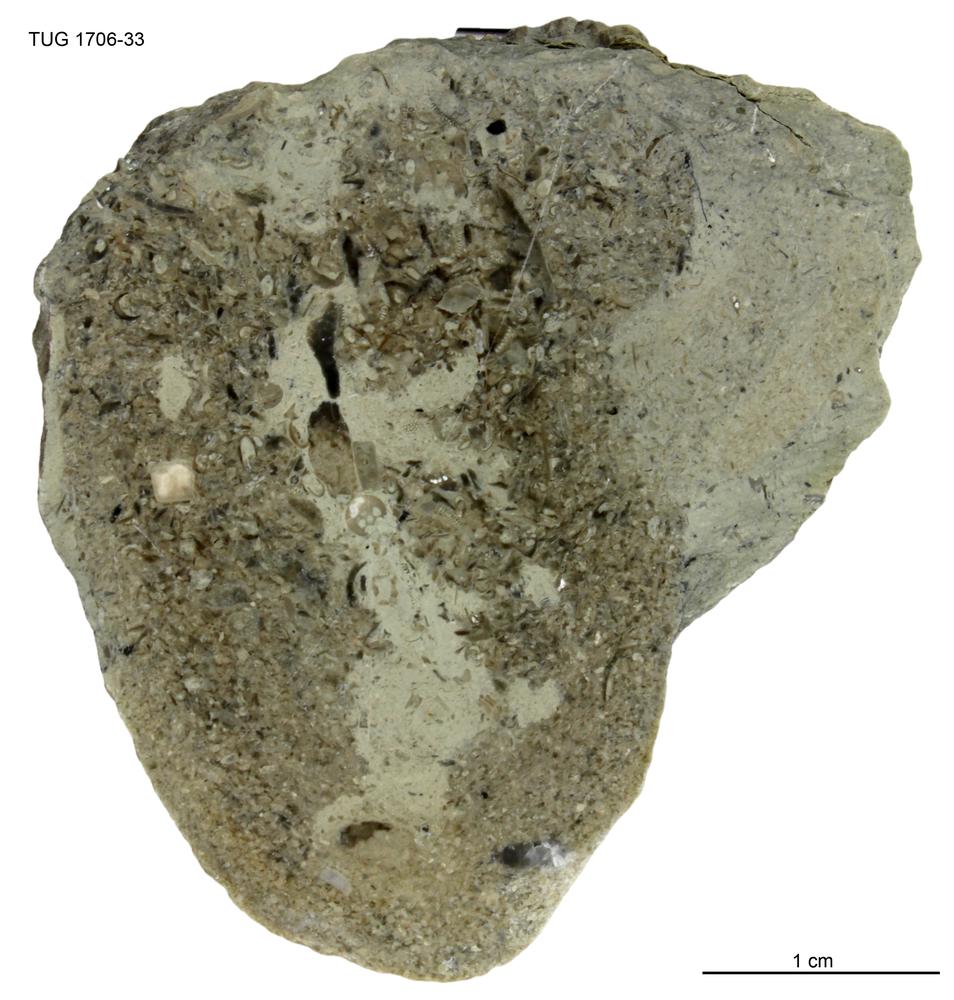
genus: Conichnus
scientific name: Conichnus
